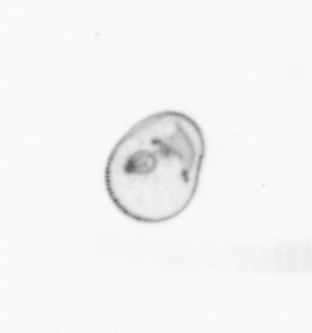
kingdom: Chromista
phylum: Myzozoa
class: Dinophyceae
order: Noctilucales
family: Noctilucaceae
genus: Noctiluca
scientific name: Noctiluca scintillans
